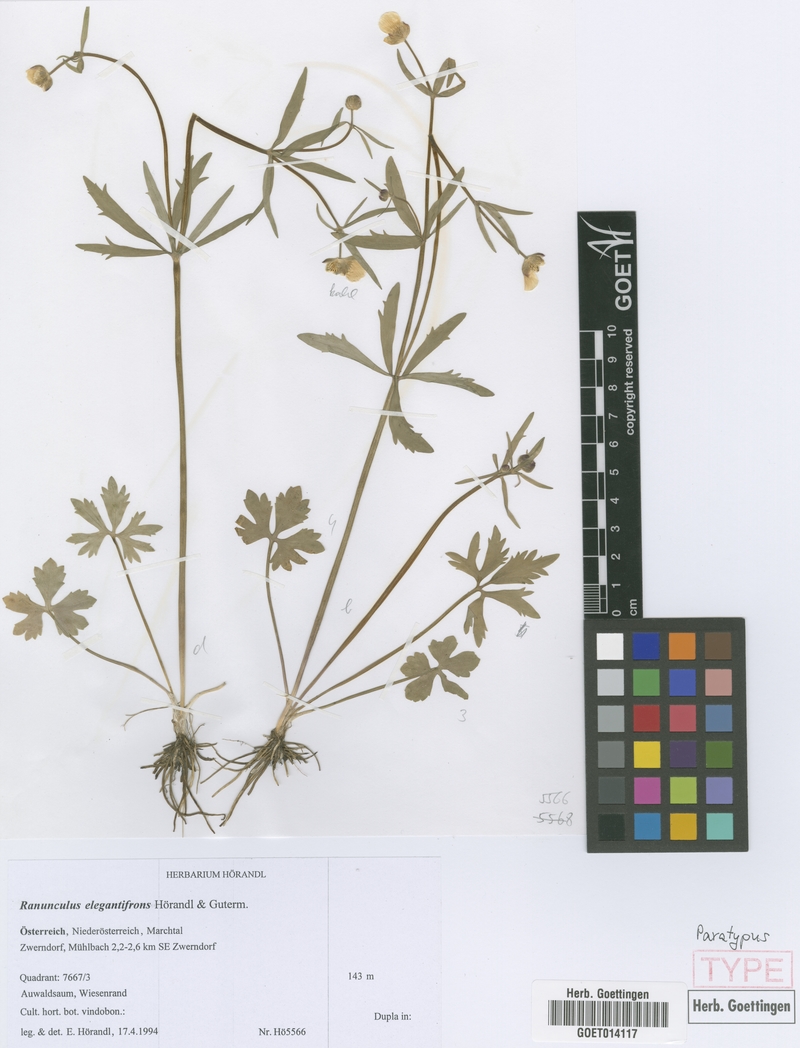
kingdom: Plantae
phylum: Tracheophyta
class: Magnoliopsida
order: Ranunculales
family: Ranunculaceae
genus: Ranunculus
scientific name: Ranunculus elegantifrons
